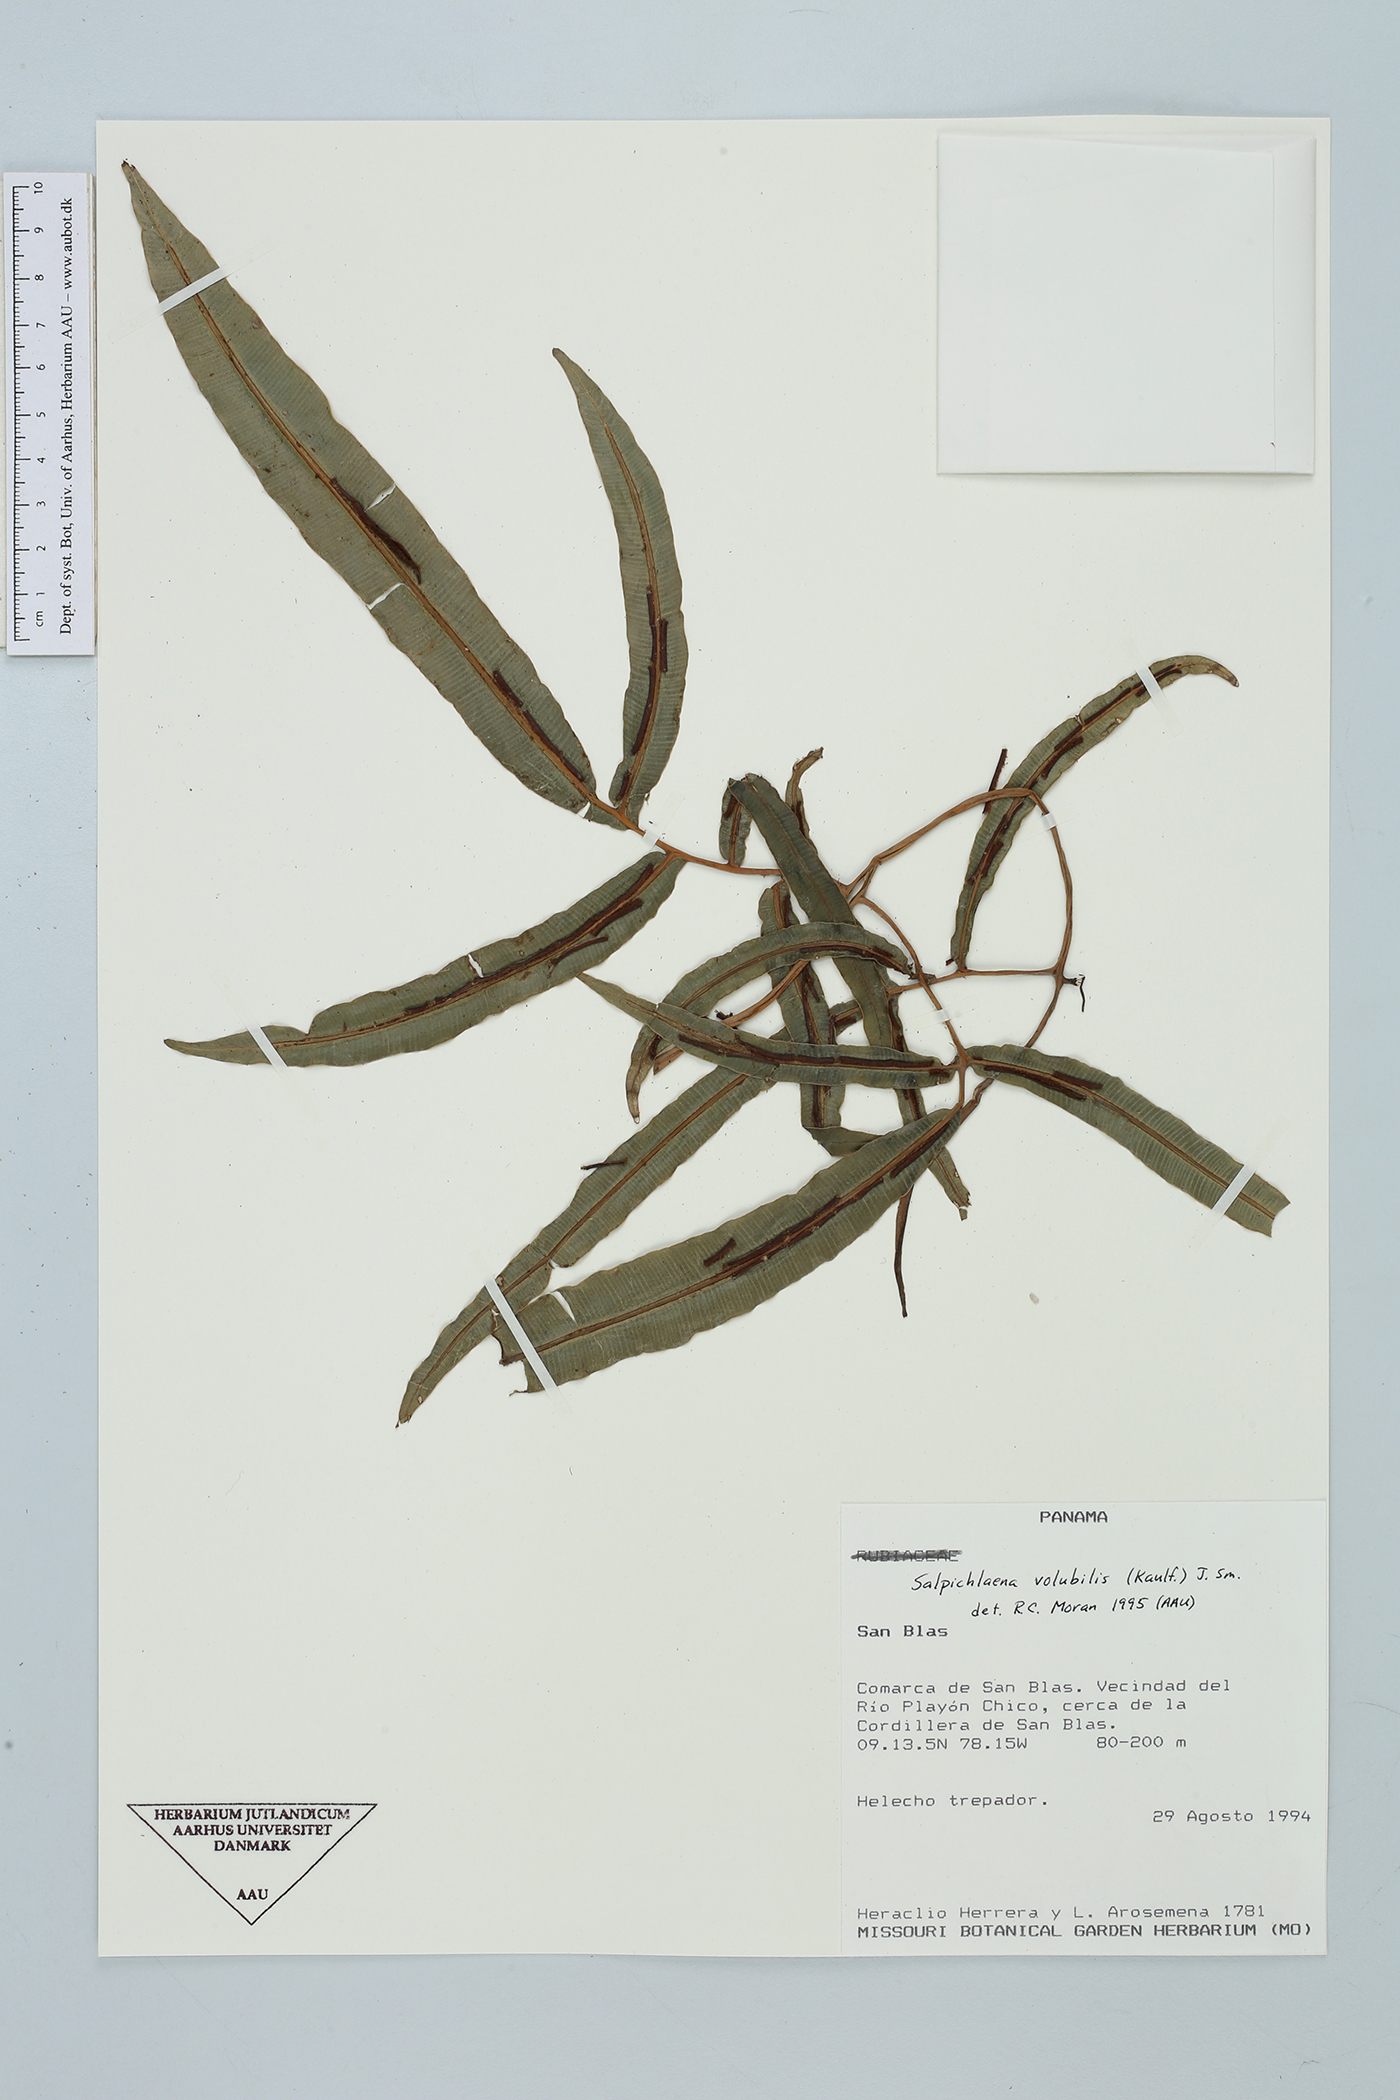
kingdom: Plantae
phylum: Tracheophyta
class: Polypodiopsida
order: Polypodiales
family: Blechnaceae
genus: Salpichlaena
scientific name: Salpichlaena volubilis
